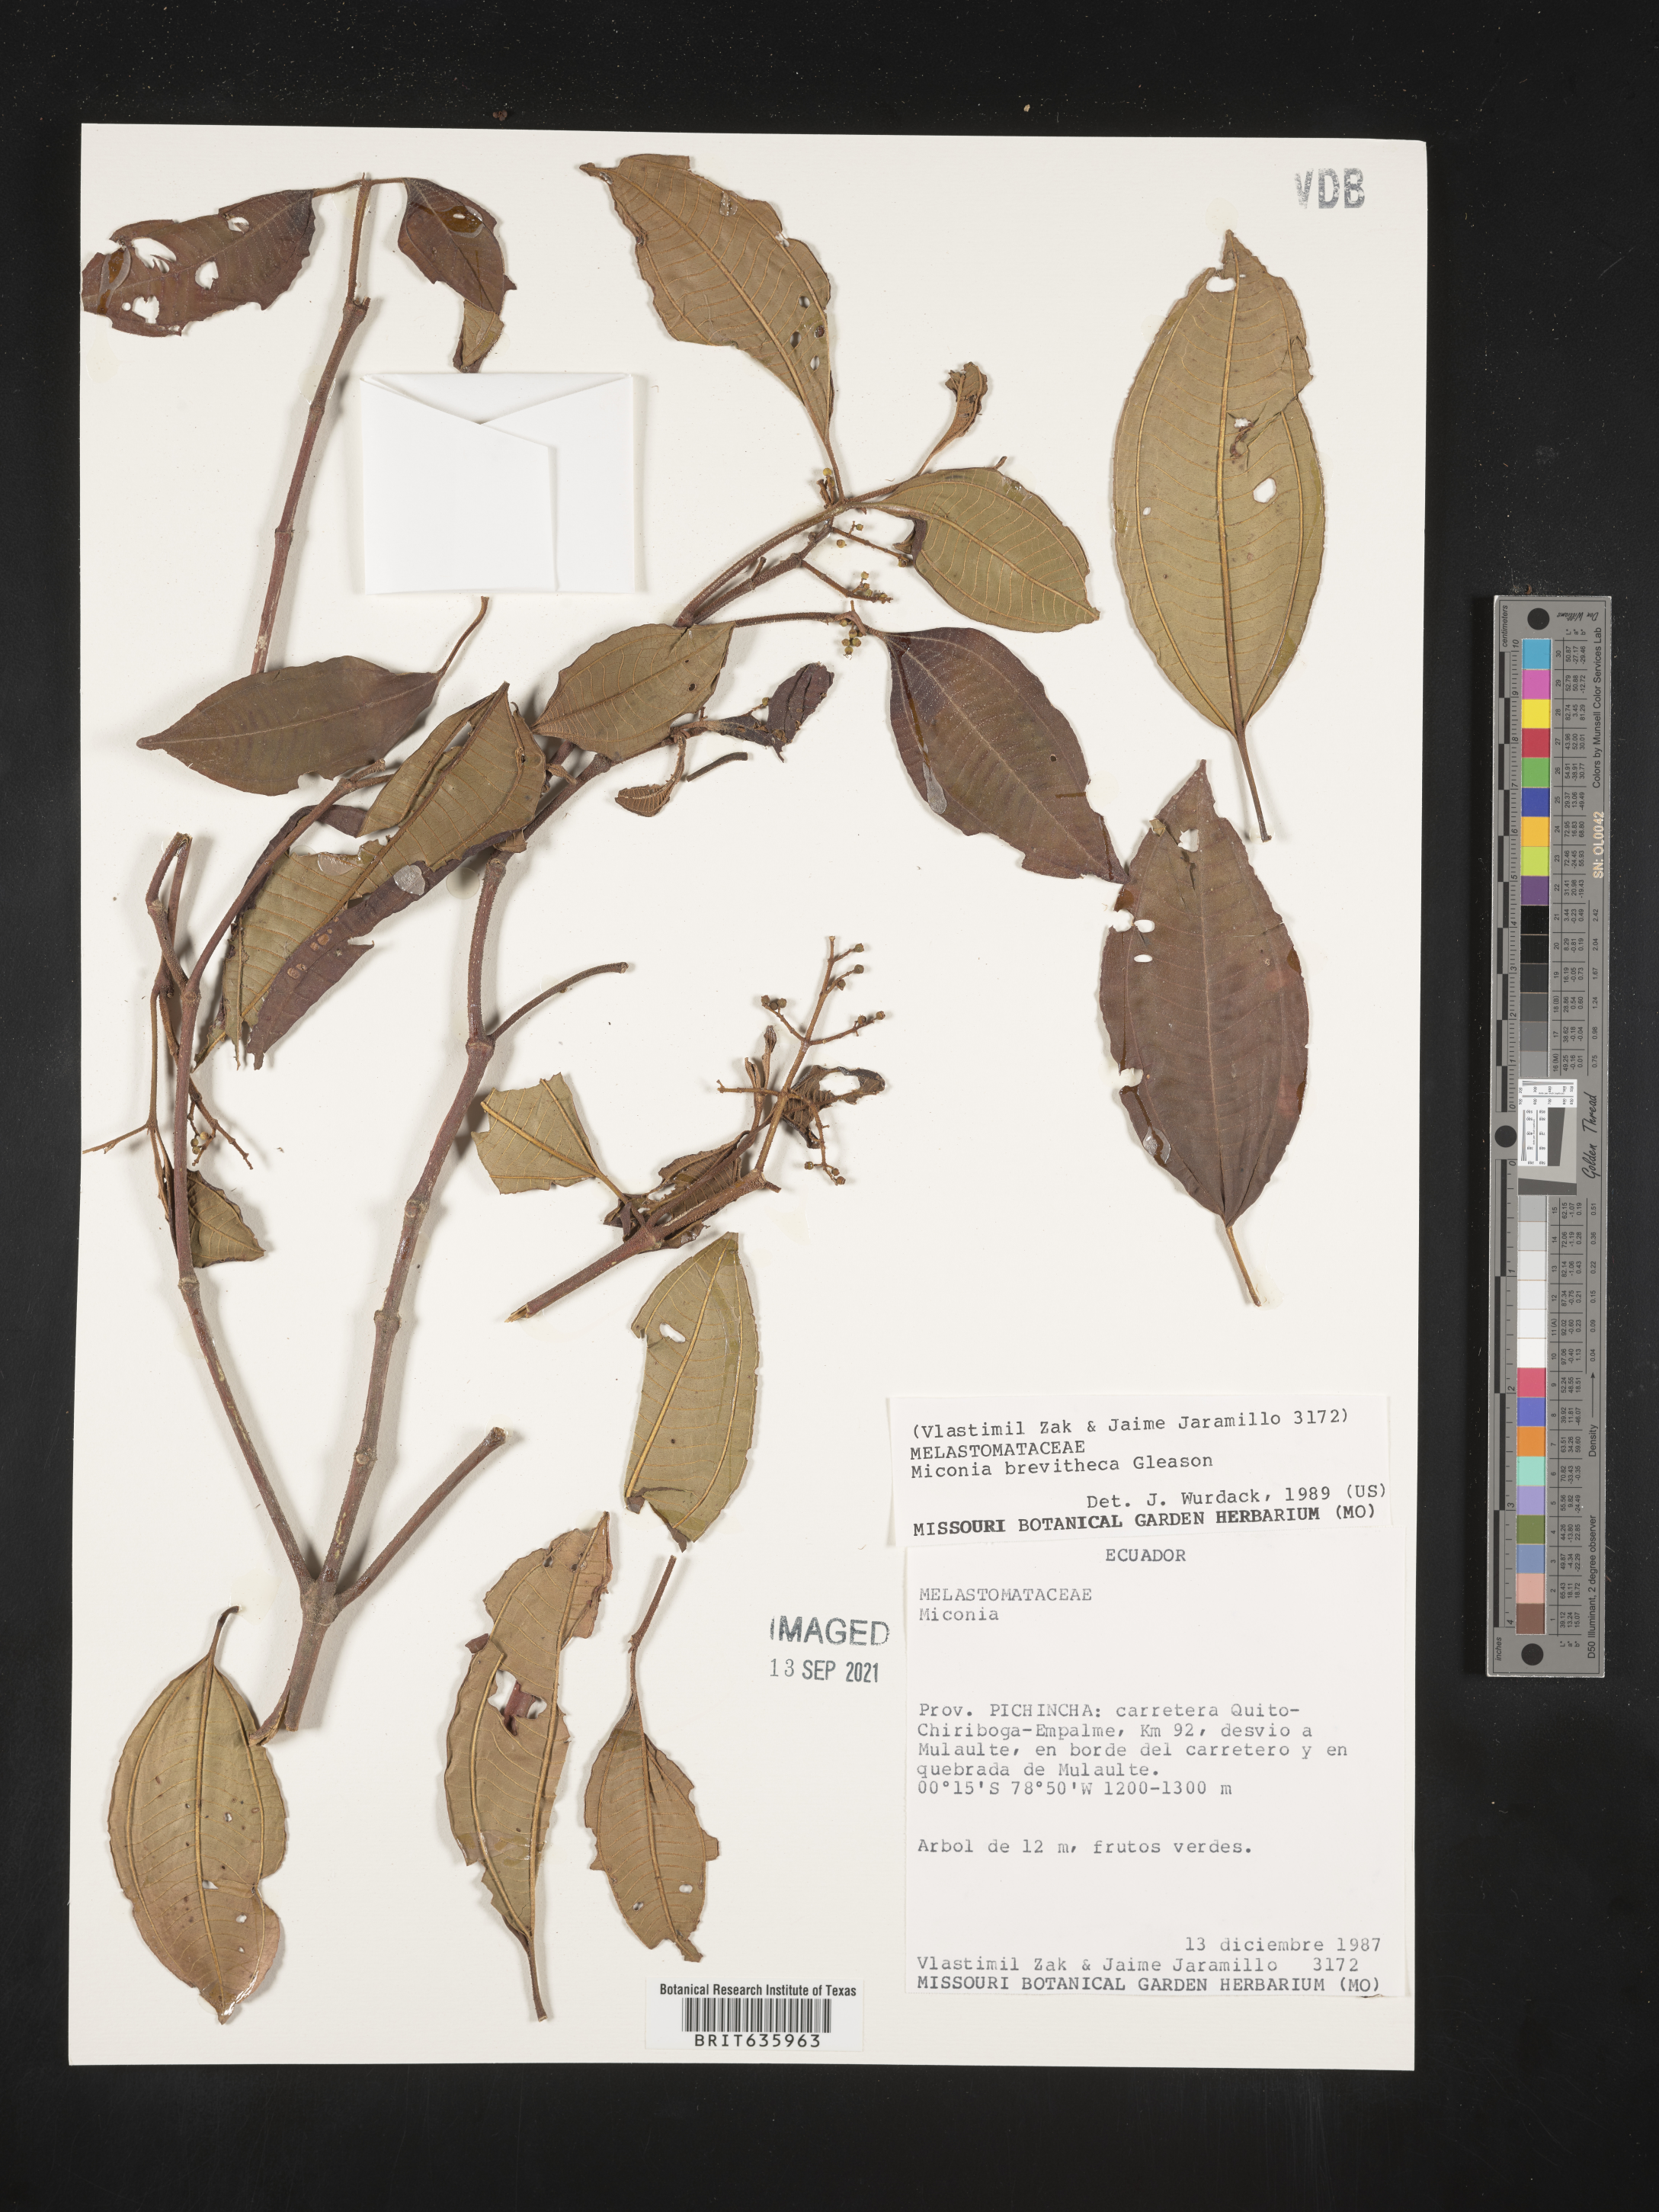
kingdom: Plantae
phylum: Tracheophyta
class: Magnoliopsida
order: Myrtales
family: Melastomataceae
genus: Miconia
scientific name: Miconia
